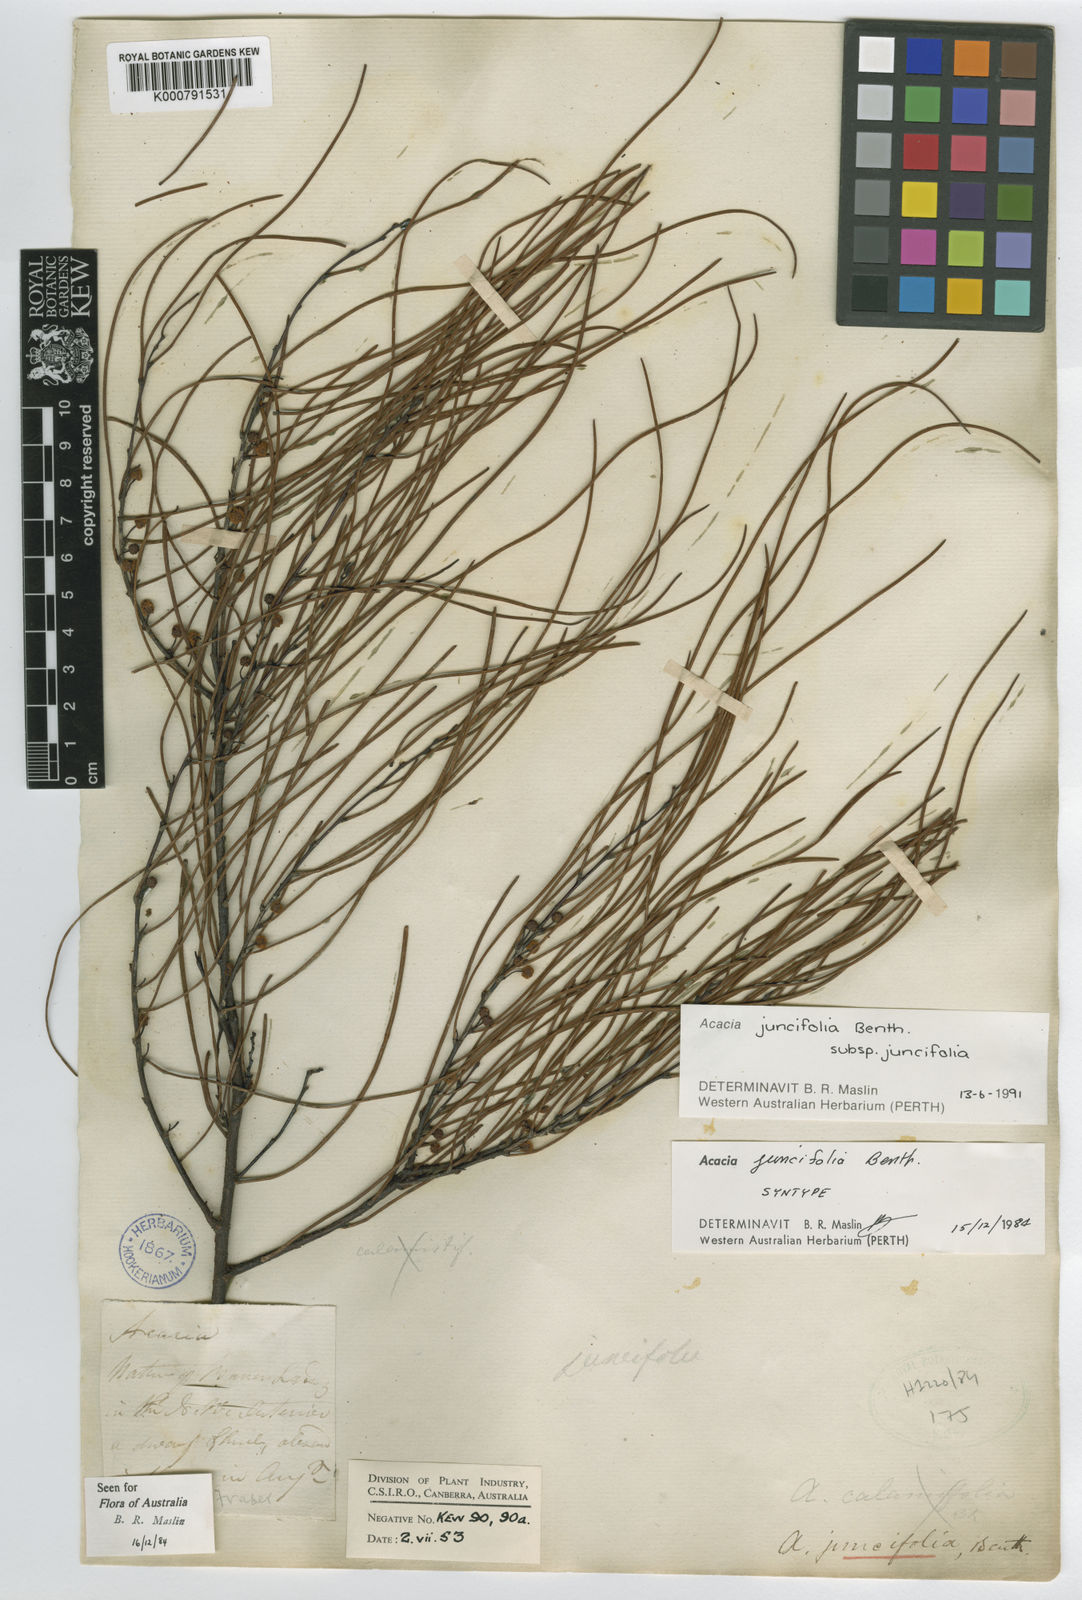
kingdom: Plantae
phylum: Tracheophyta
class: Magnoliopsida
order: Fabales
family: Fabaceae
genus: Acacia
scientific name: Acacia juncifolia
